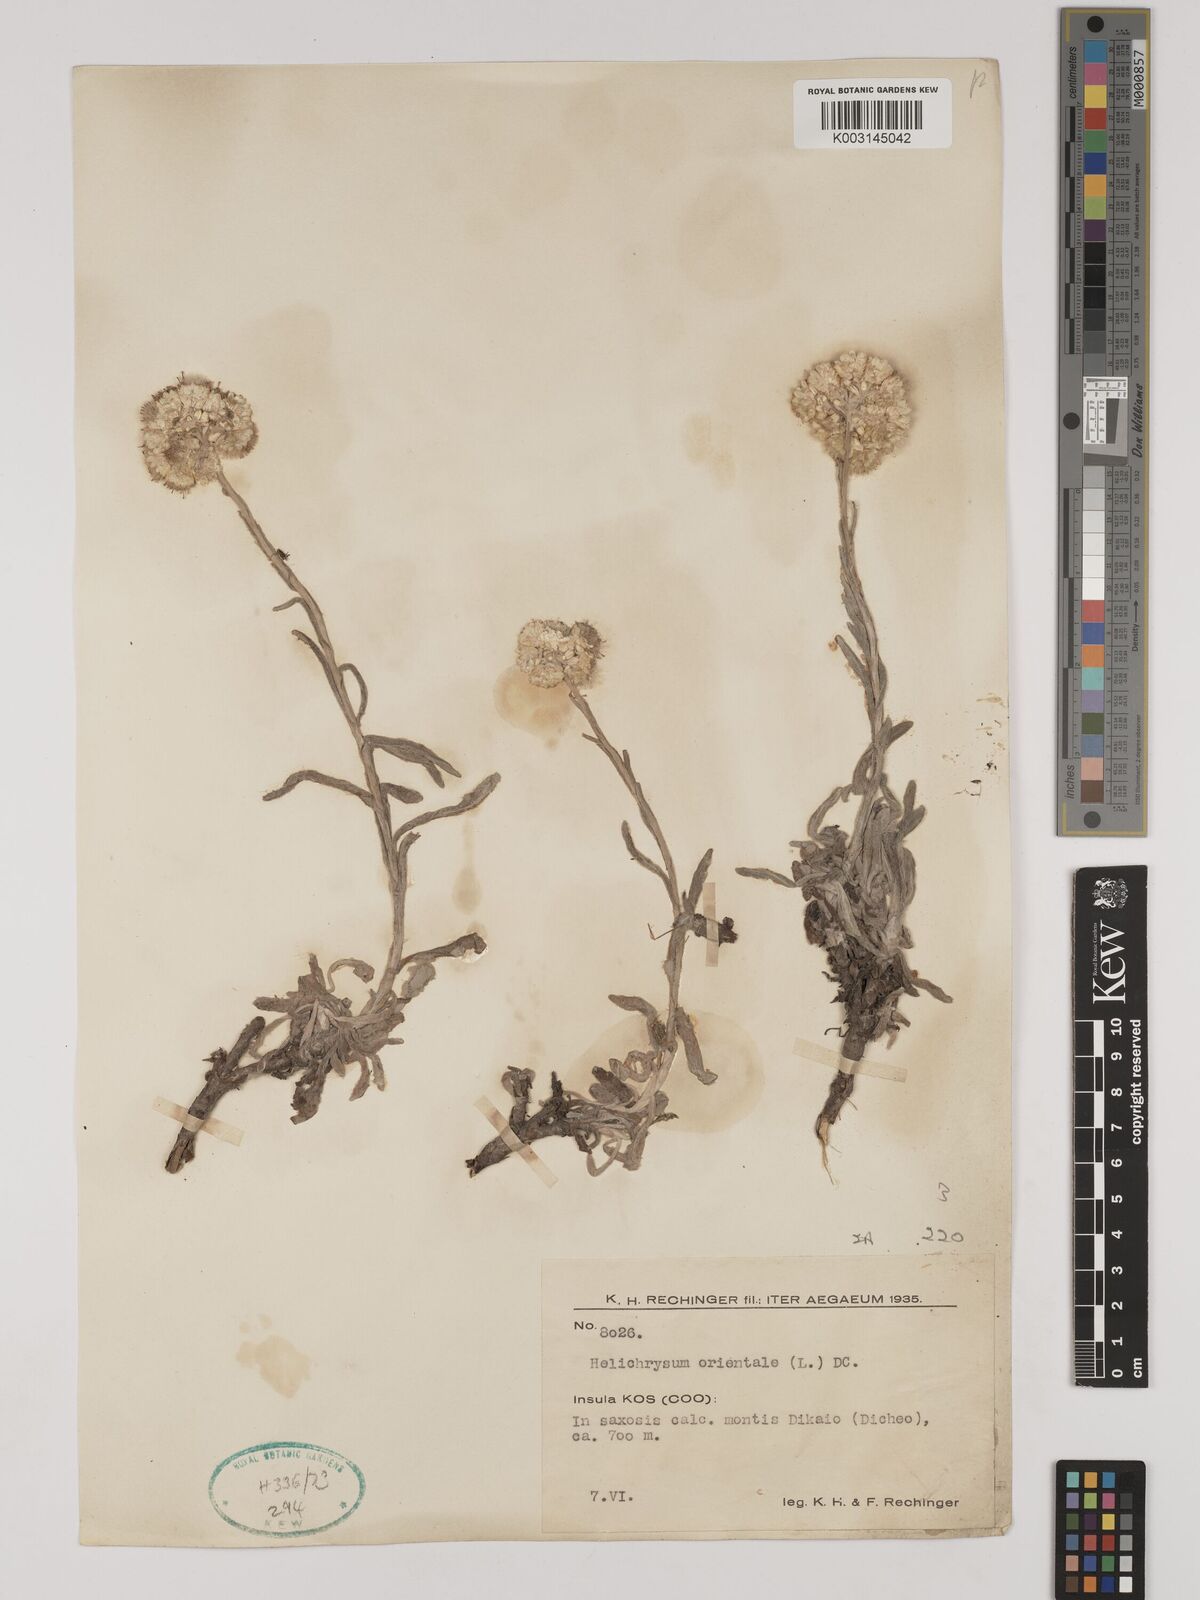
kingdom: Plantae
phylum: Tracheophyta
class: Magnoliopsida
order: Asterales
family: Asteraceae
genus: Helichrysum
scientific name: Helichrysum orientale
